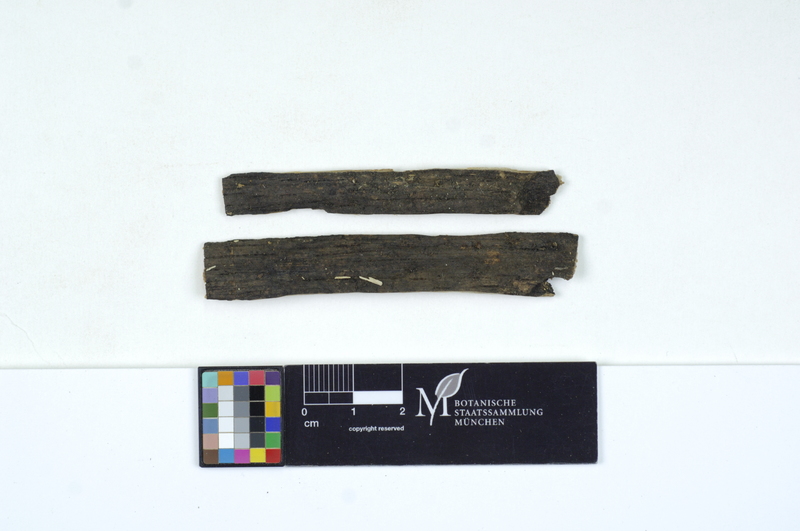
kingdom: Fungi
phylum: Basidiomycota
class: Agaricomycetes
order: Cantharellales
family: Tulasnellaceae
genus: Tulasnella
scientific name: Tulasnella pruinosa
